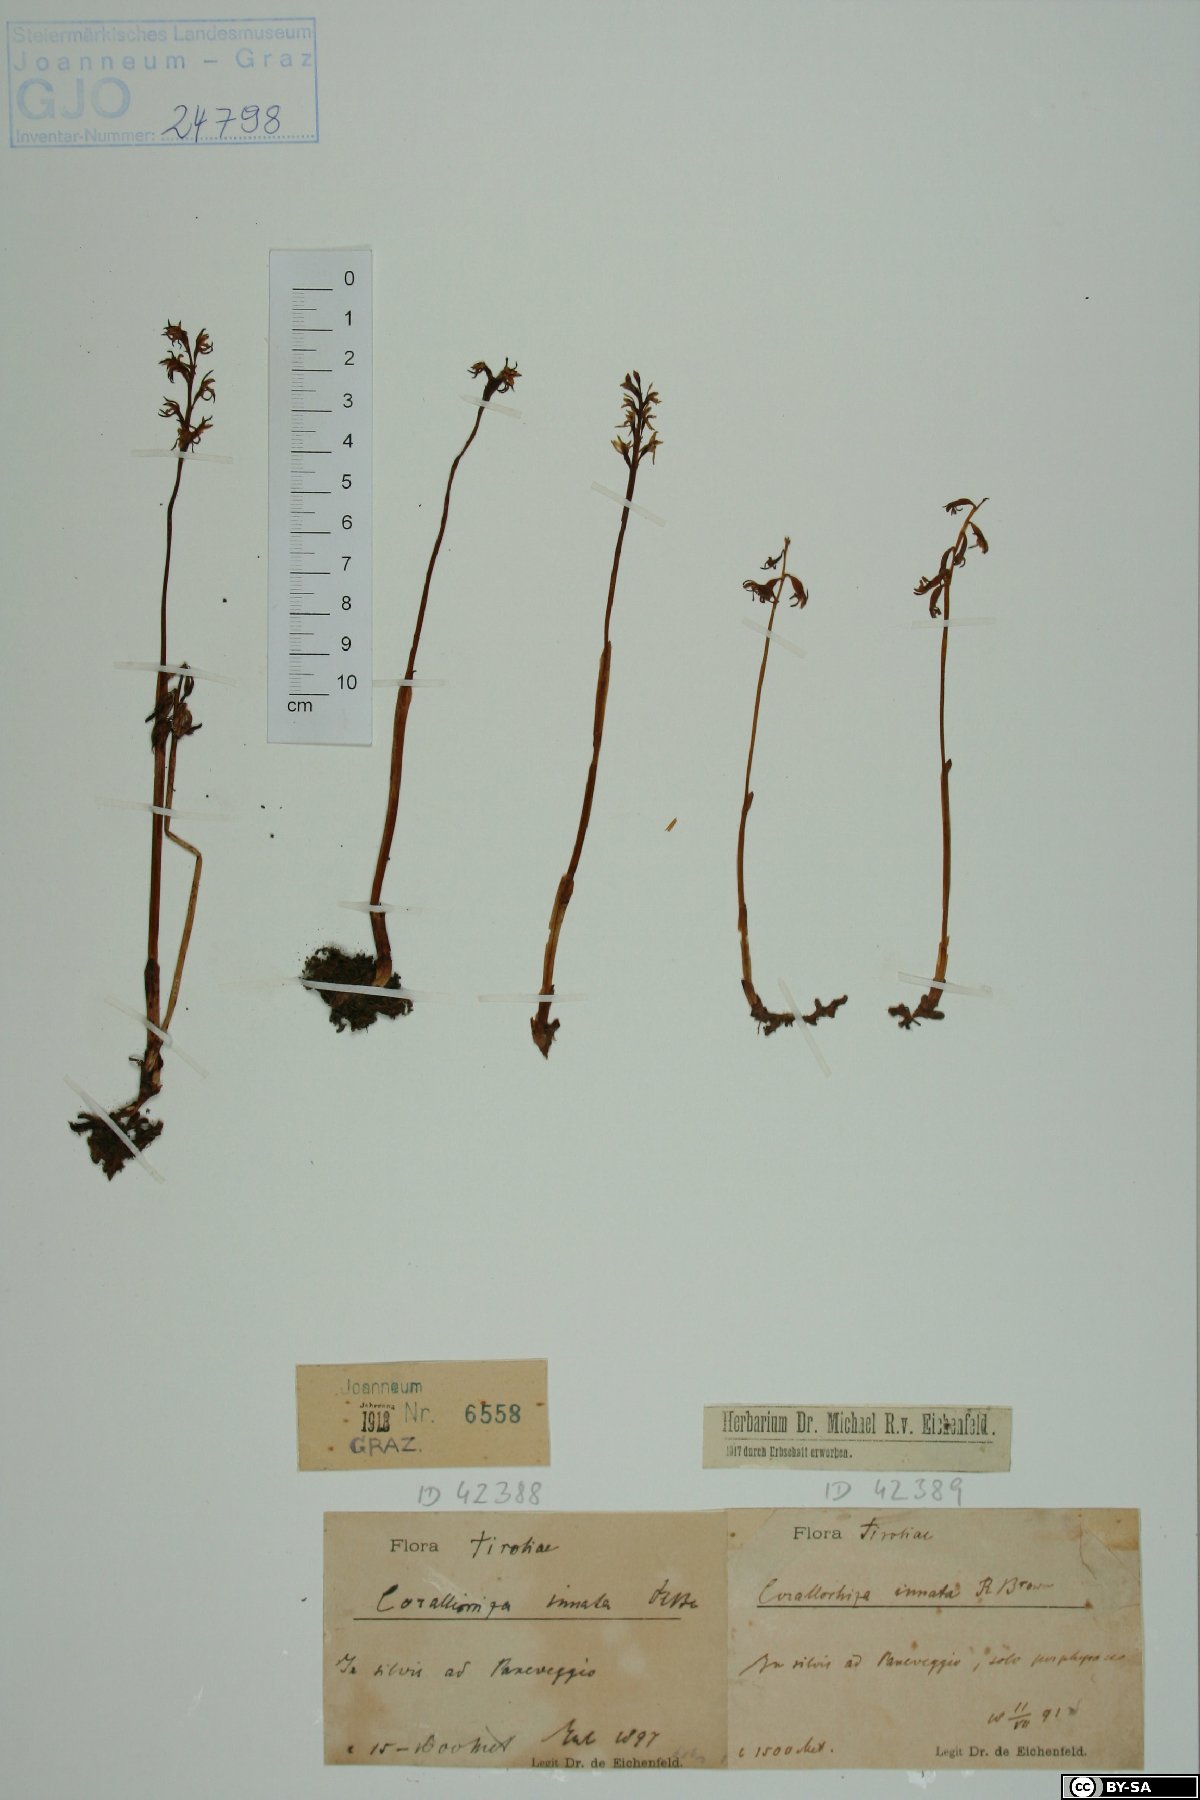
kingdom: Plantae
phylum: Tracheophyta
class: Liliopsida
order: Asparagales
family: Orchidaceae
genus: Corallorhiza
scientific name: Corallorhiza trifida
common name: Yellow coralroot
